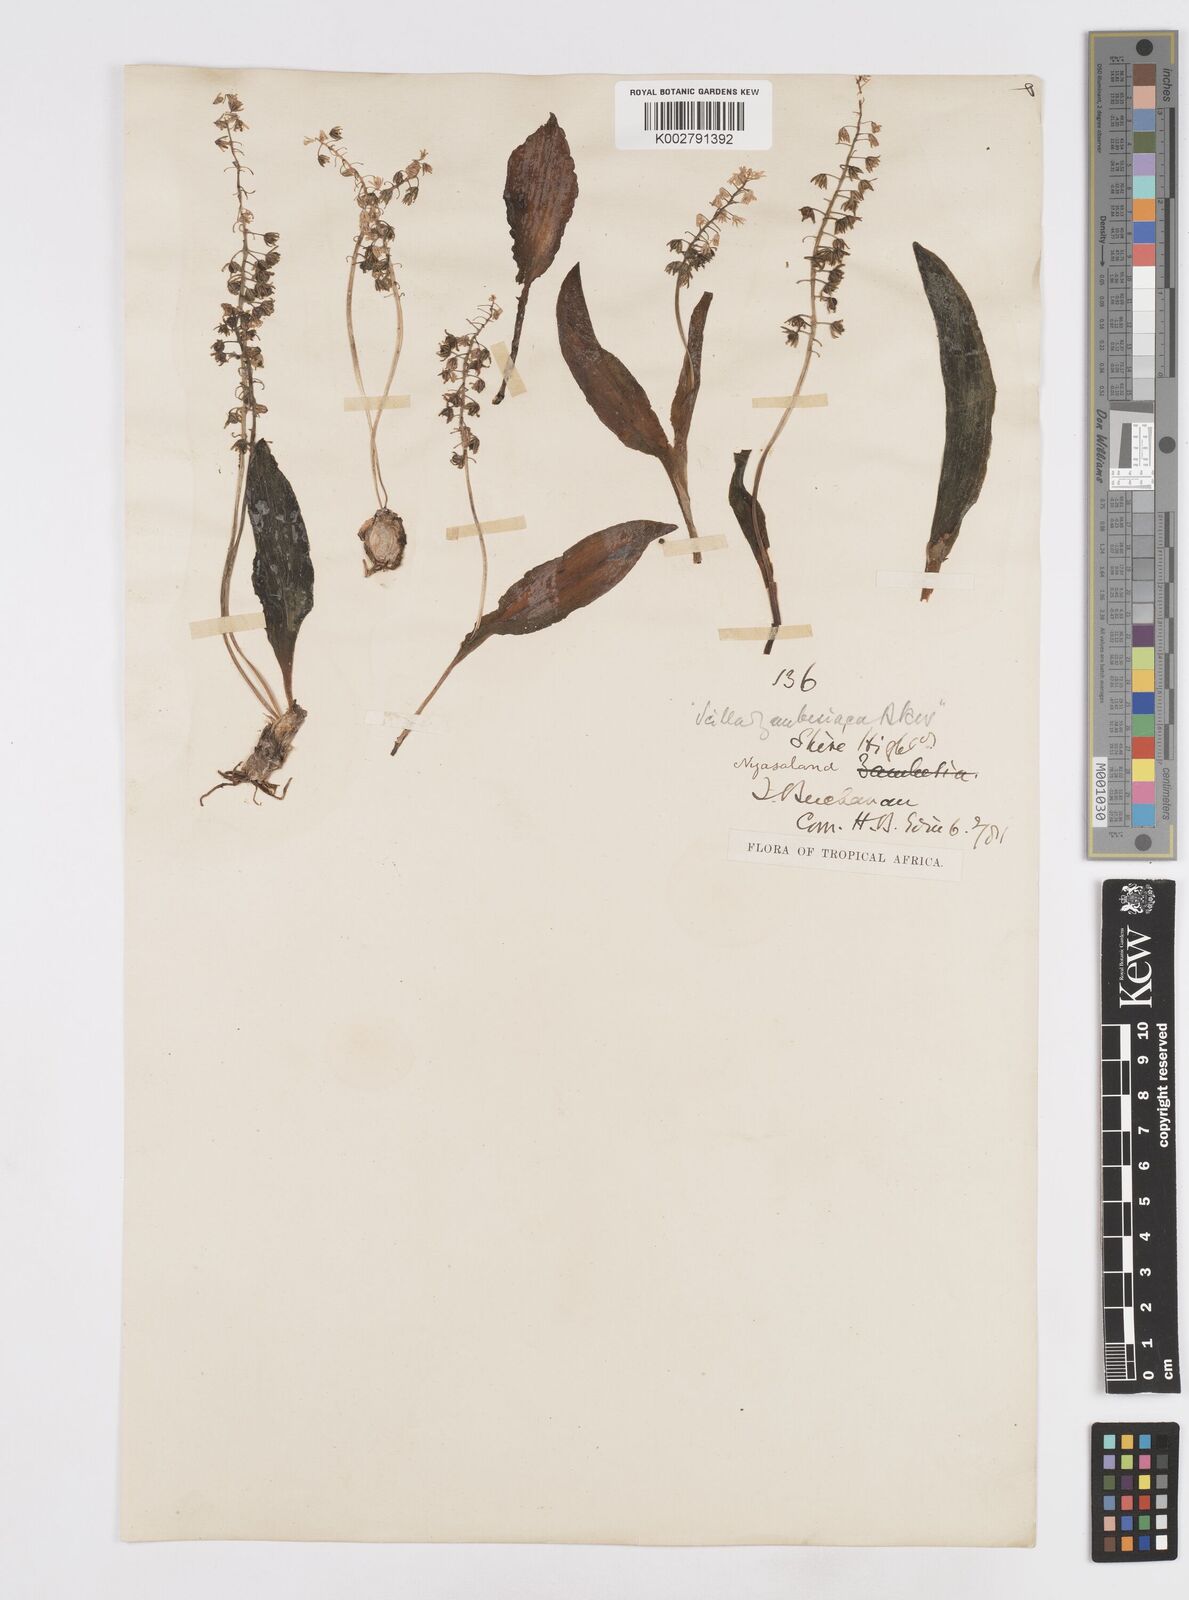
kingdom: Plantae
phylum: Tracheophyta
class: Liliopsida
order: Asparagales
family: Asparagaceae
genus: Ledebouria
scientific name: Ledebouria zambesiaca
